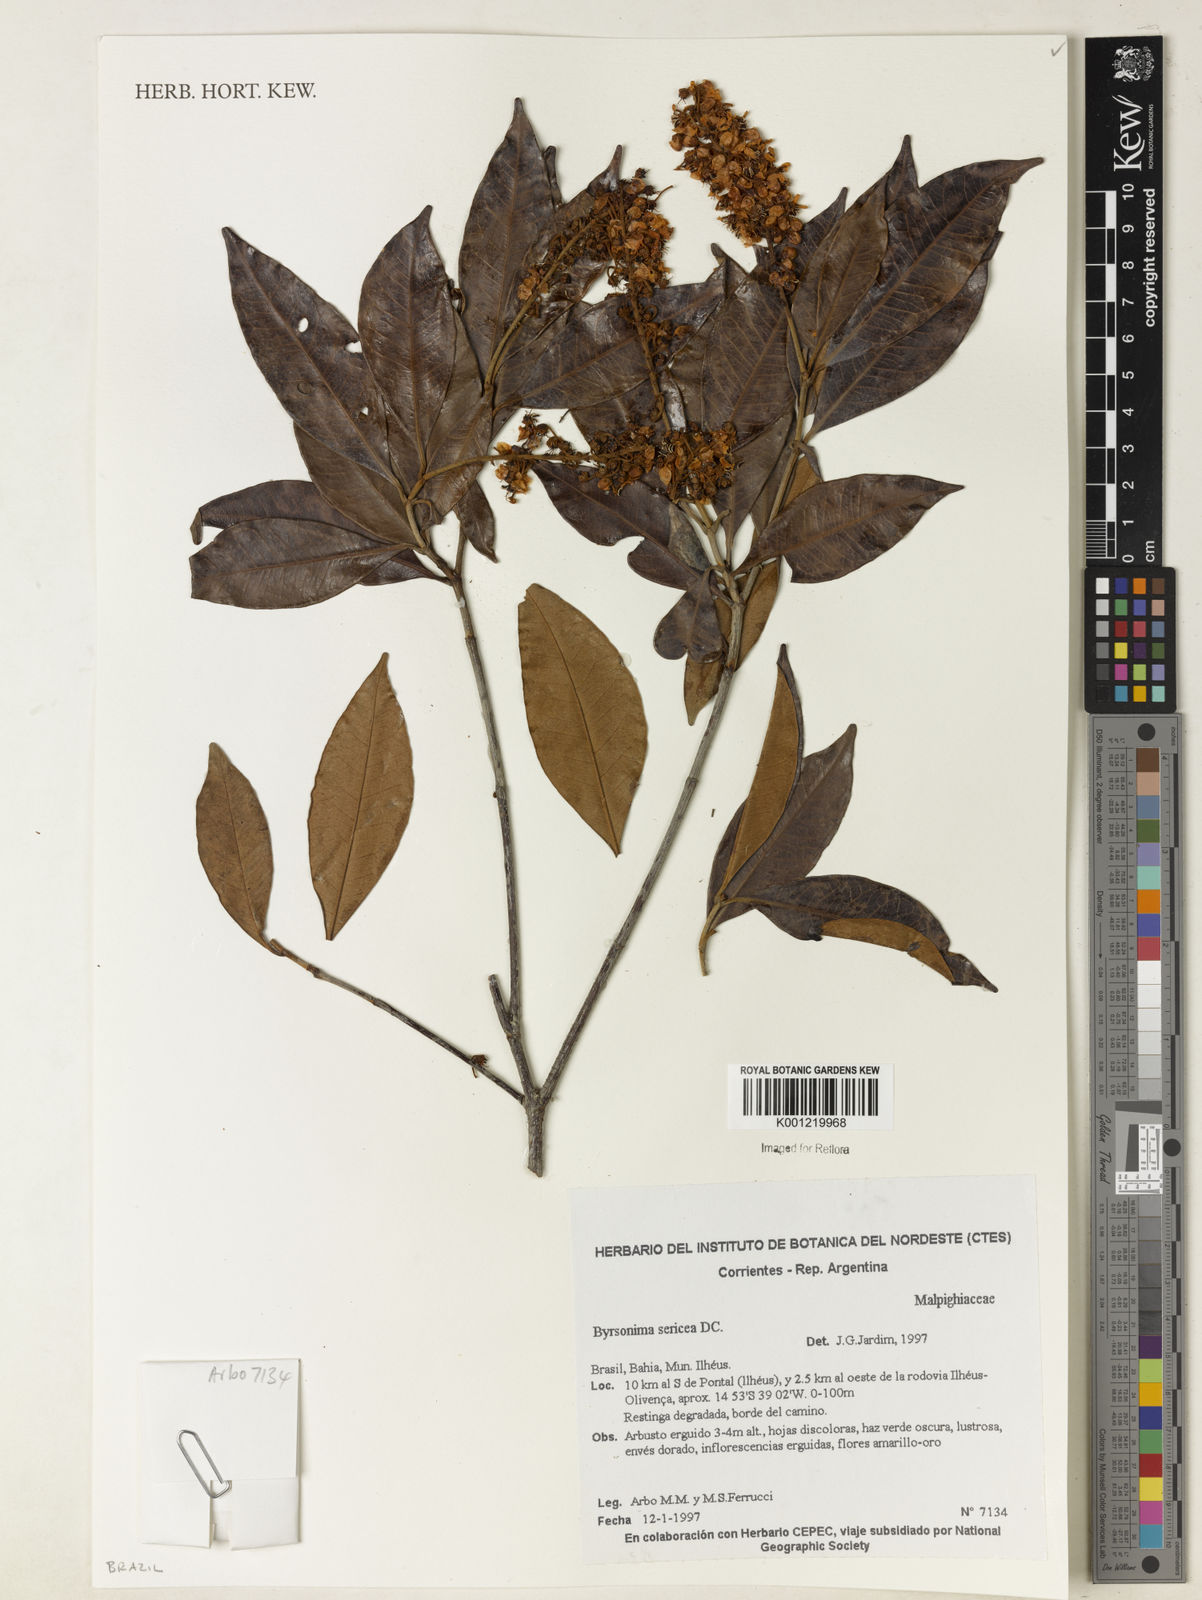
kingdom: Plantae
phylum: Tracheophyta
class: Magnoliopsida
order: Malpighiales
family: Malpighiaceae
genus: Byrsonima
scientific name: Byrsonima sericea
